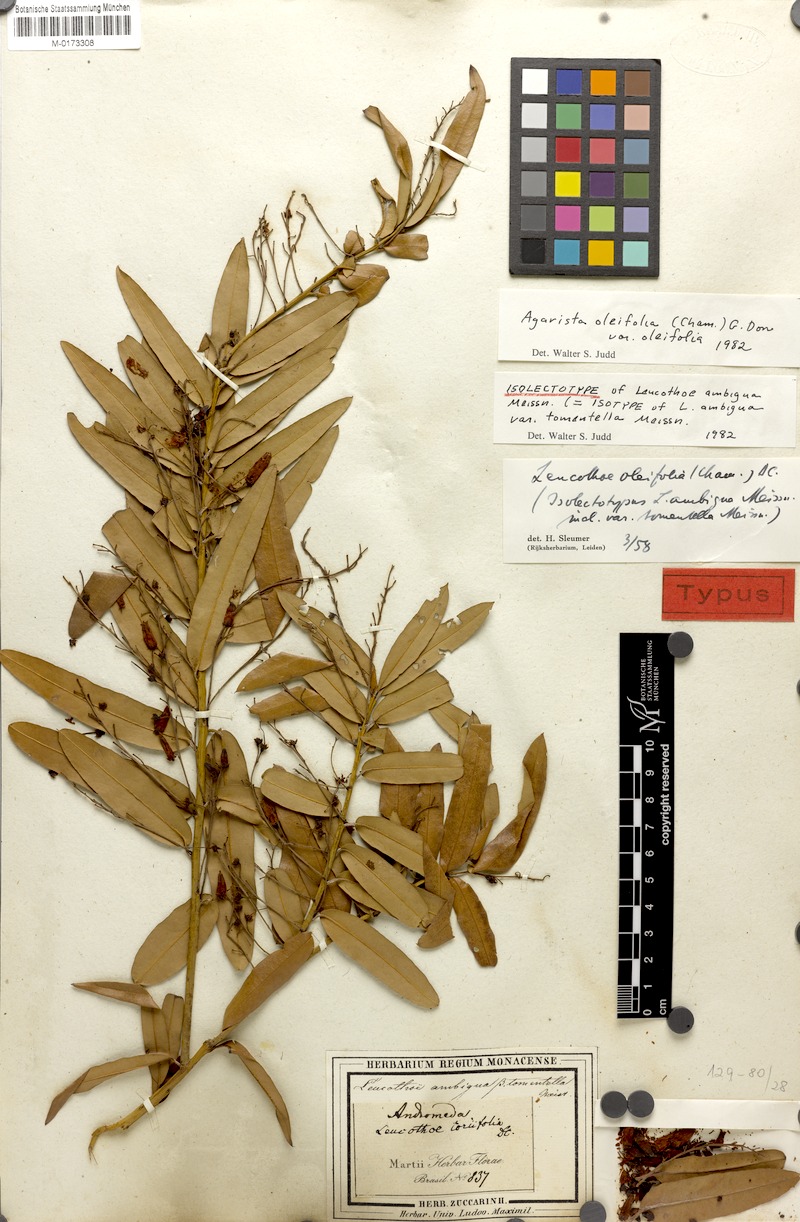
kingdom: Plantae
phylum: Tracheophyta
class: Magnoliopsida
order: Ericales
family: Ericaceae
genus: Agarista
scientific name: Agarista oleifolia
